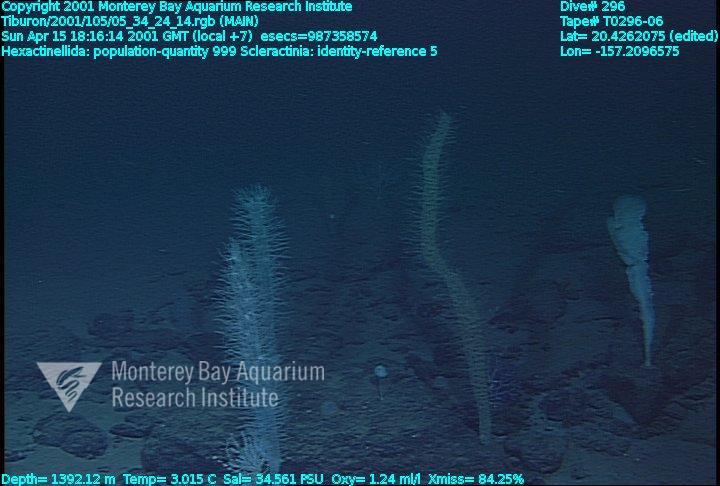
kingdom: Animalia
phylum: Porifera
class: Hexactinellida
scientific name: Hexactinellida
